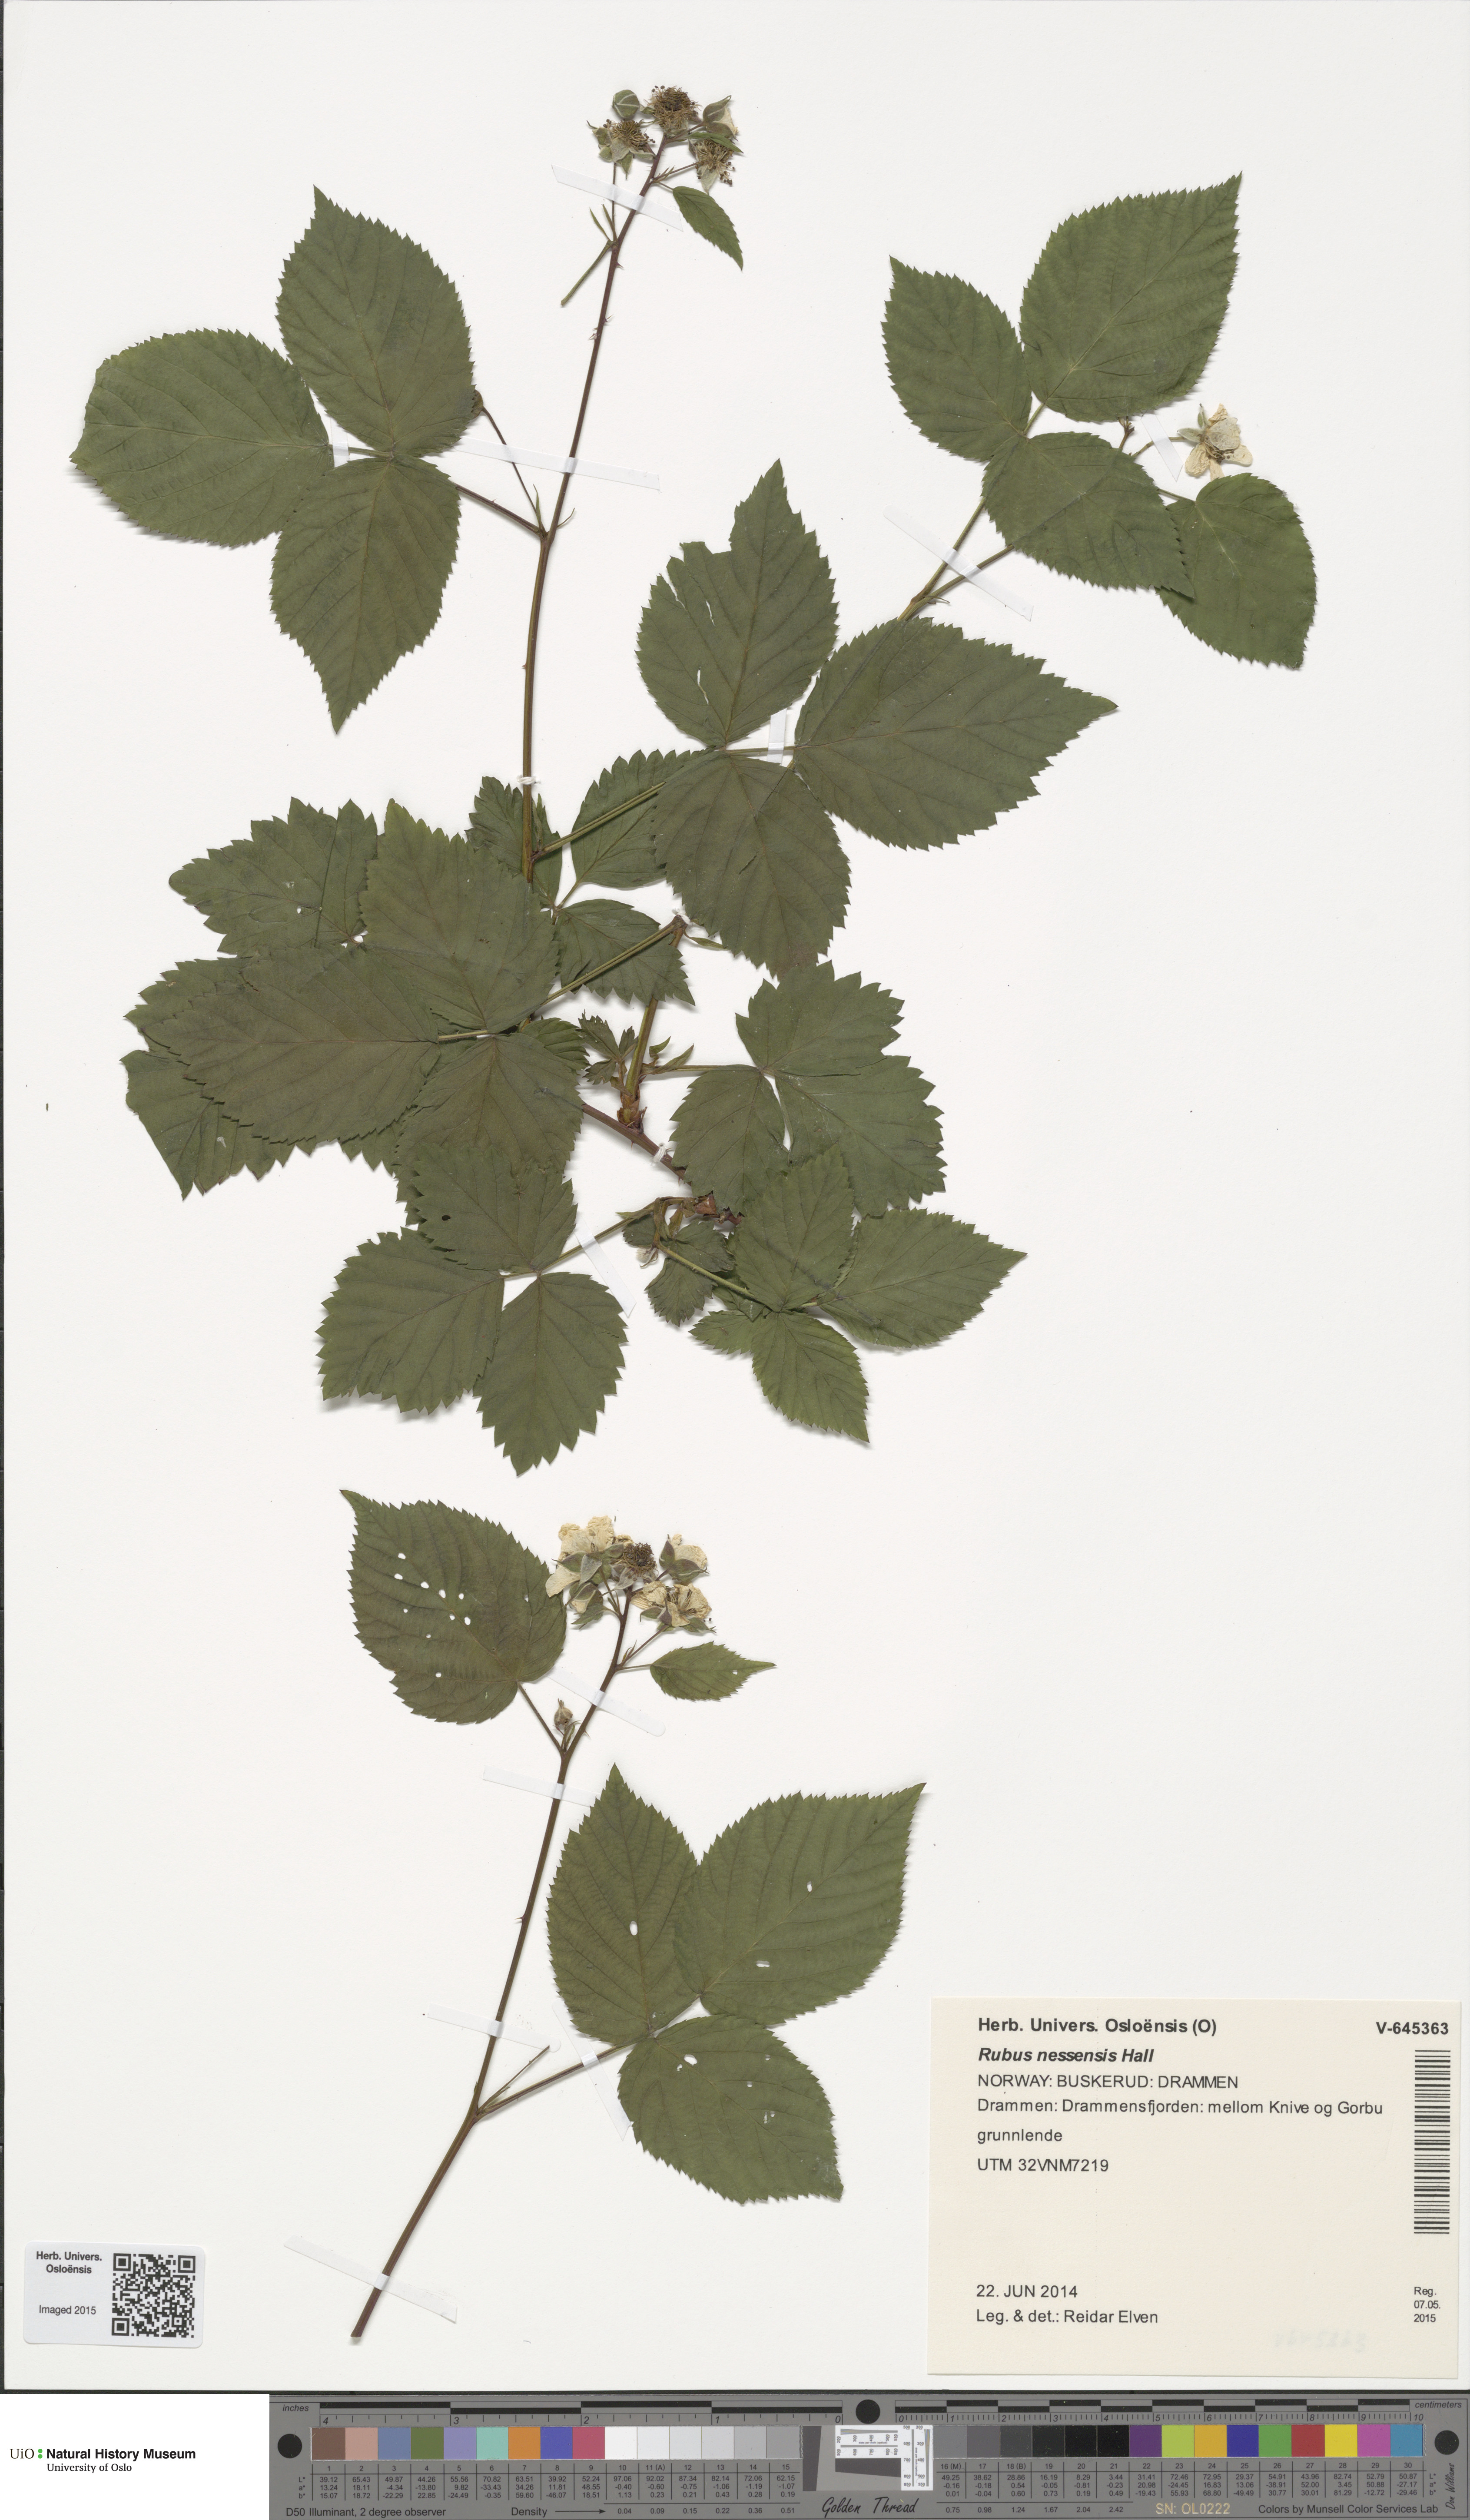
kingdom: Plantae
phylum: Tracheophyta
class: Magnoliopsida
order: Rosales
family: Rosaceae
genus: Rubus
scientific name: Rubus polonicus
